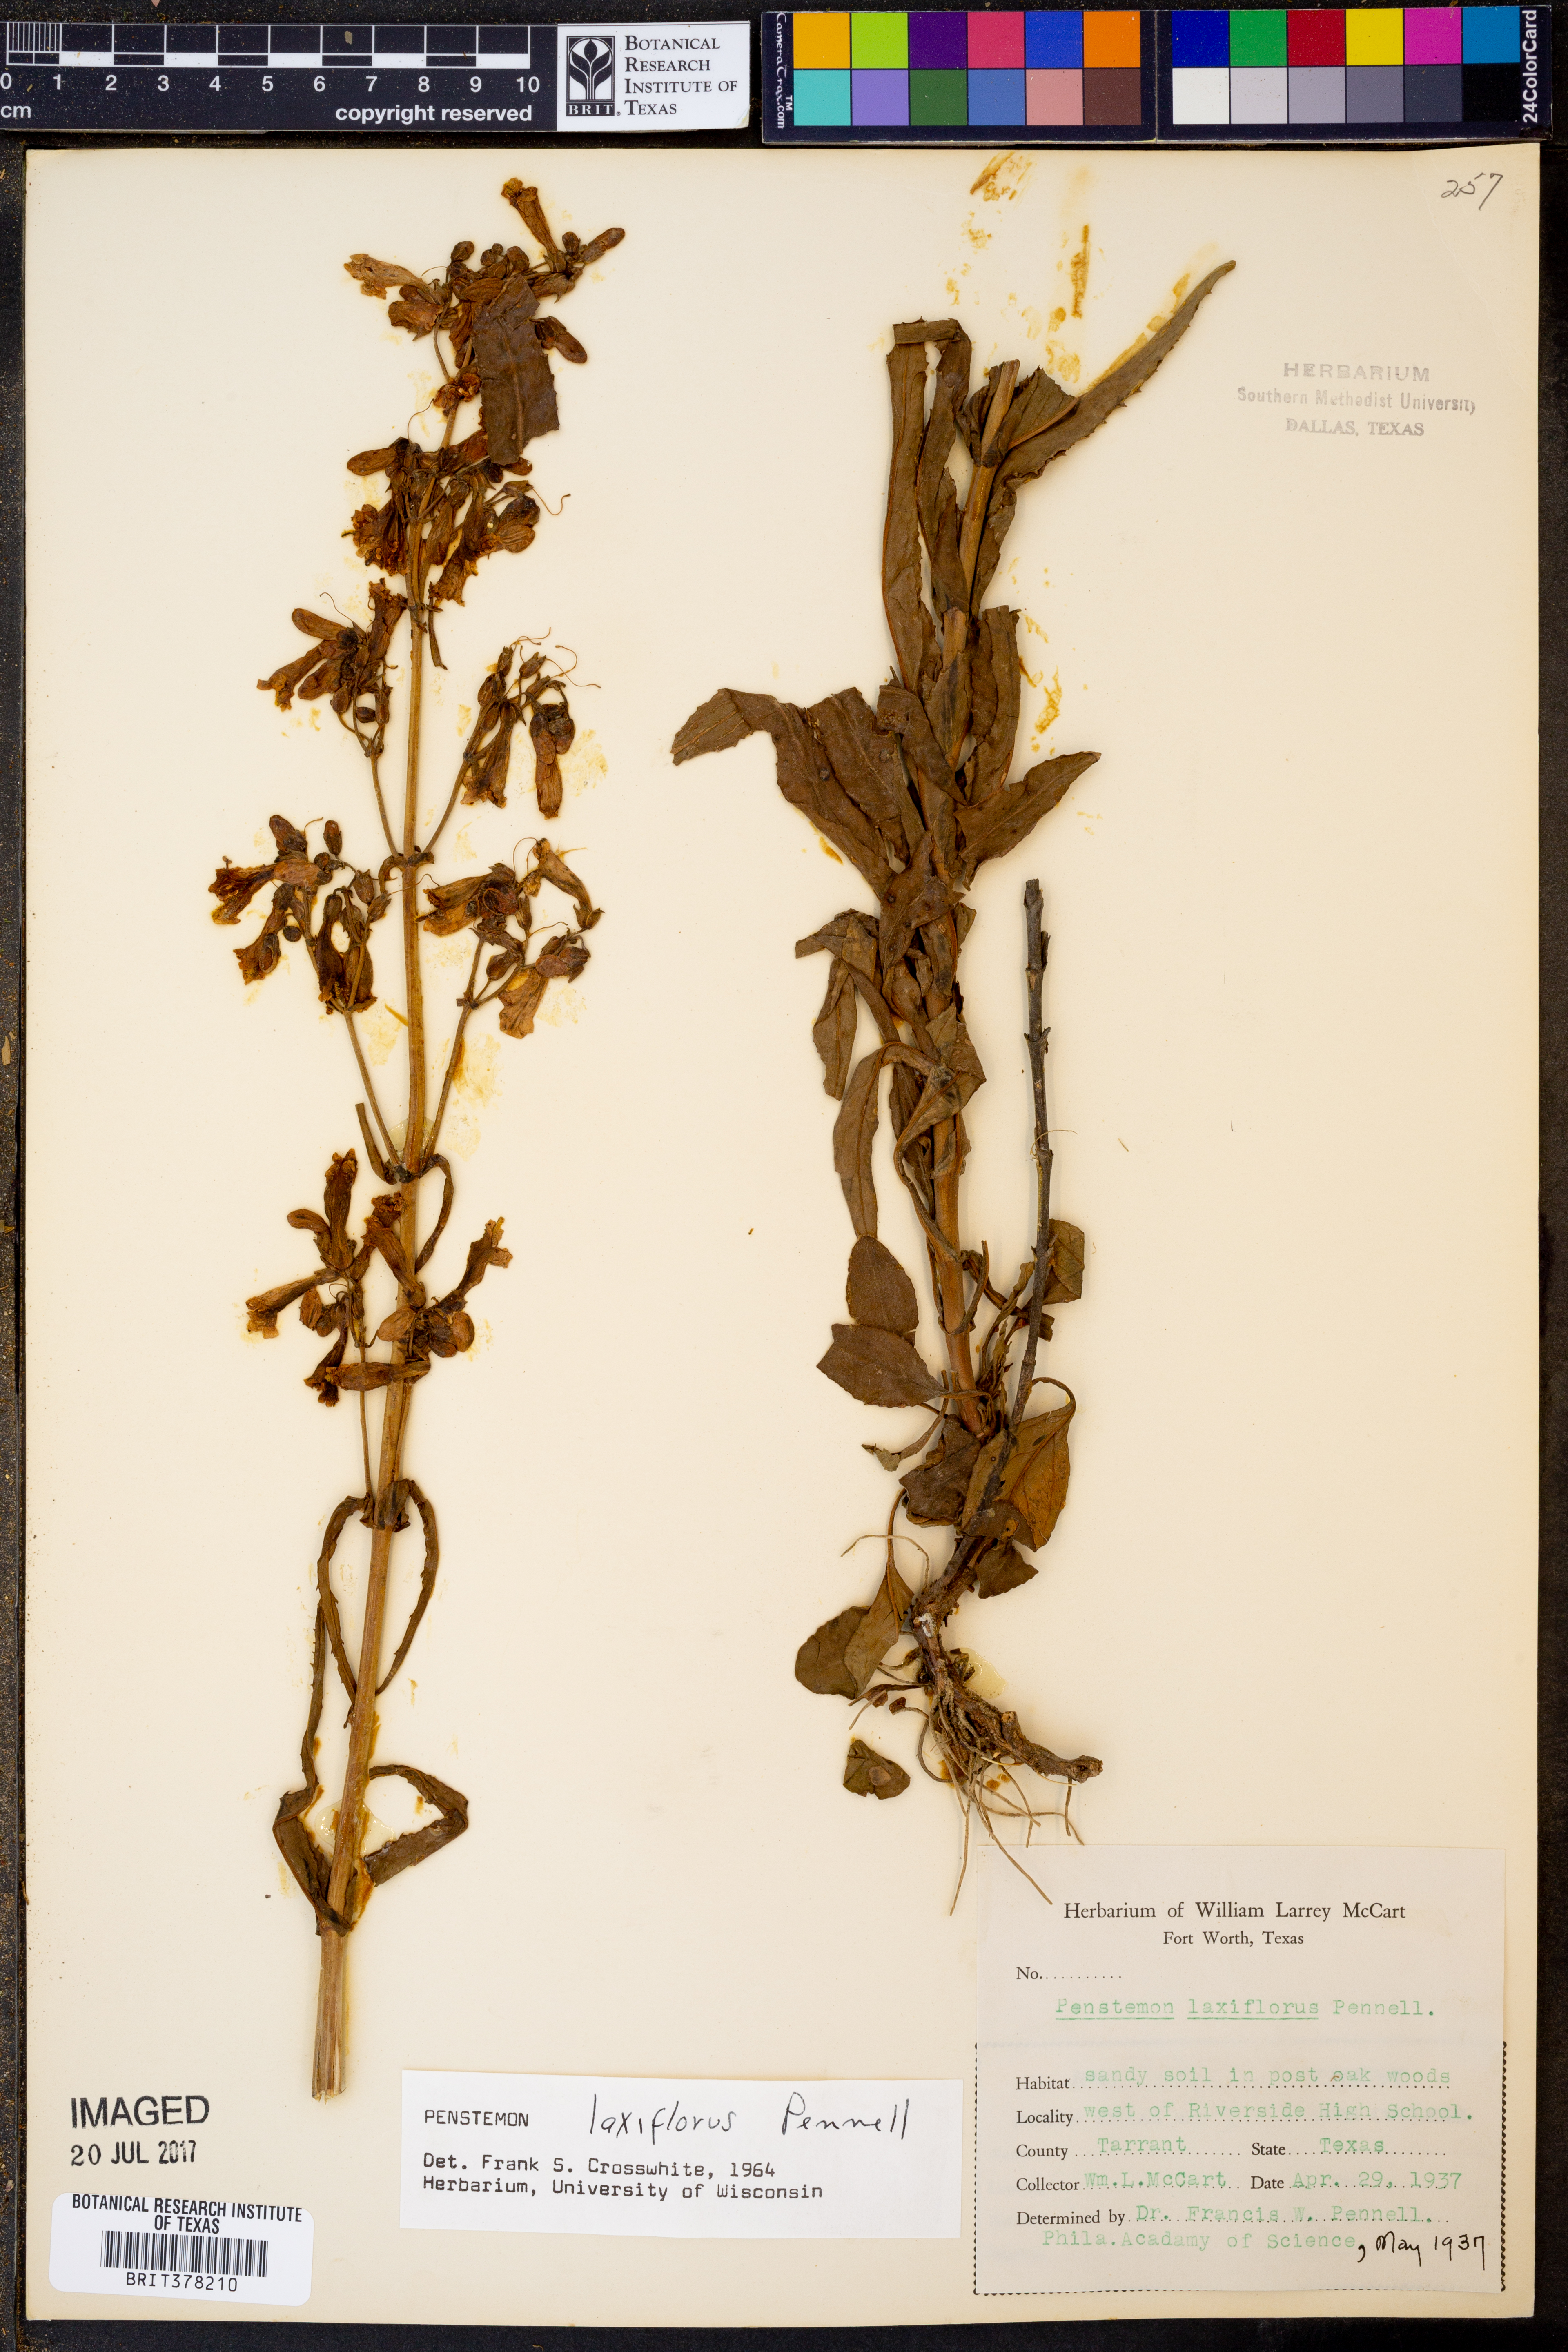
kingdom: Plantae
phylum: Tracheophyta
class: Magnoliopsida
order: Lamiales
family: Plantaginaceae
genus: Penstemon
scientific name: Penstemon laxiflorus
